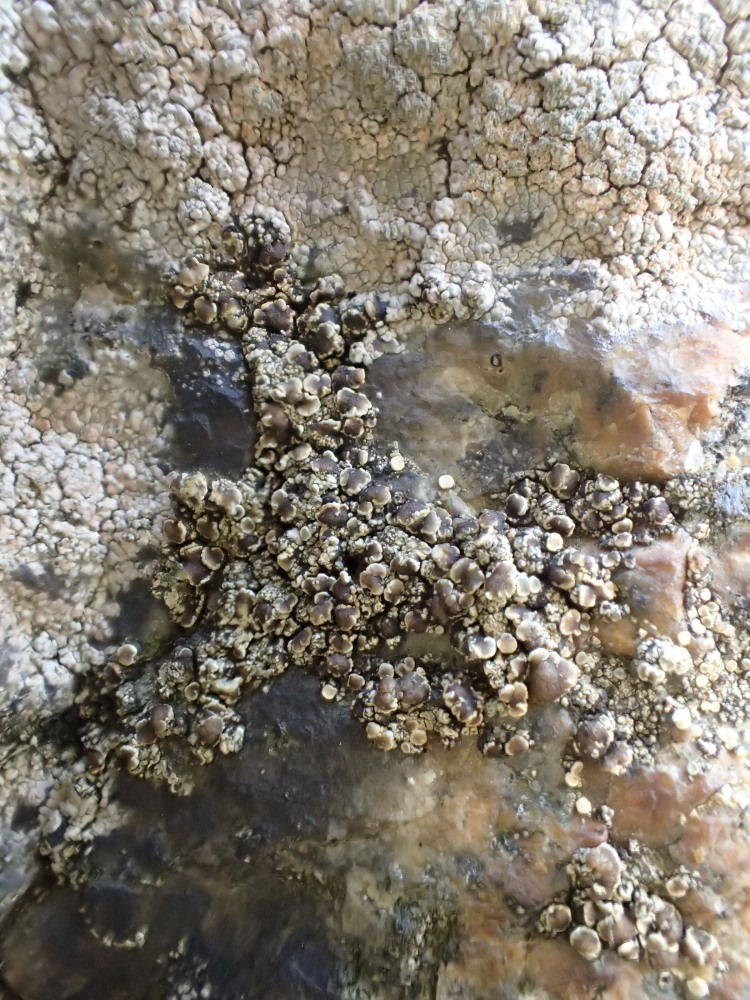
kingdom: Fungi
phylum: Ascomycota
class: Lecanoromycetes
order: Lecanorales
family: Lecanoraceae
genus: Lecanora
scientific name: Lecanora polytropa
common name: bleggrøn kantskivelav
